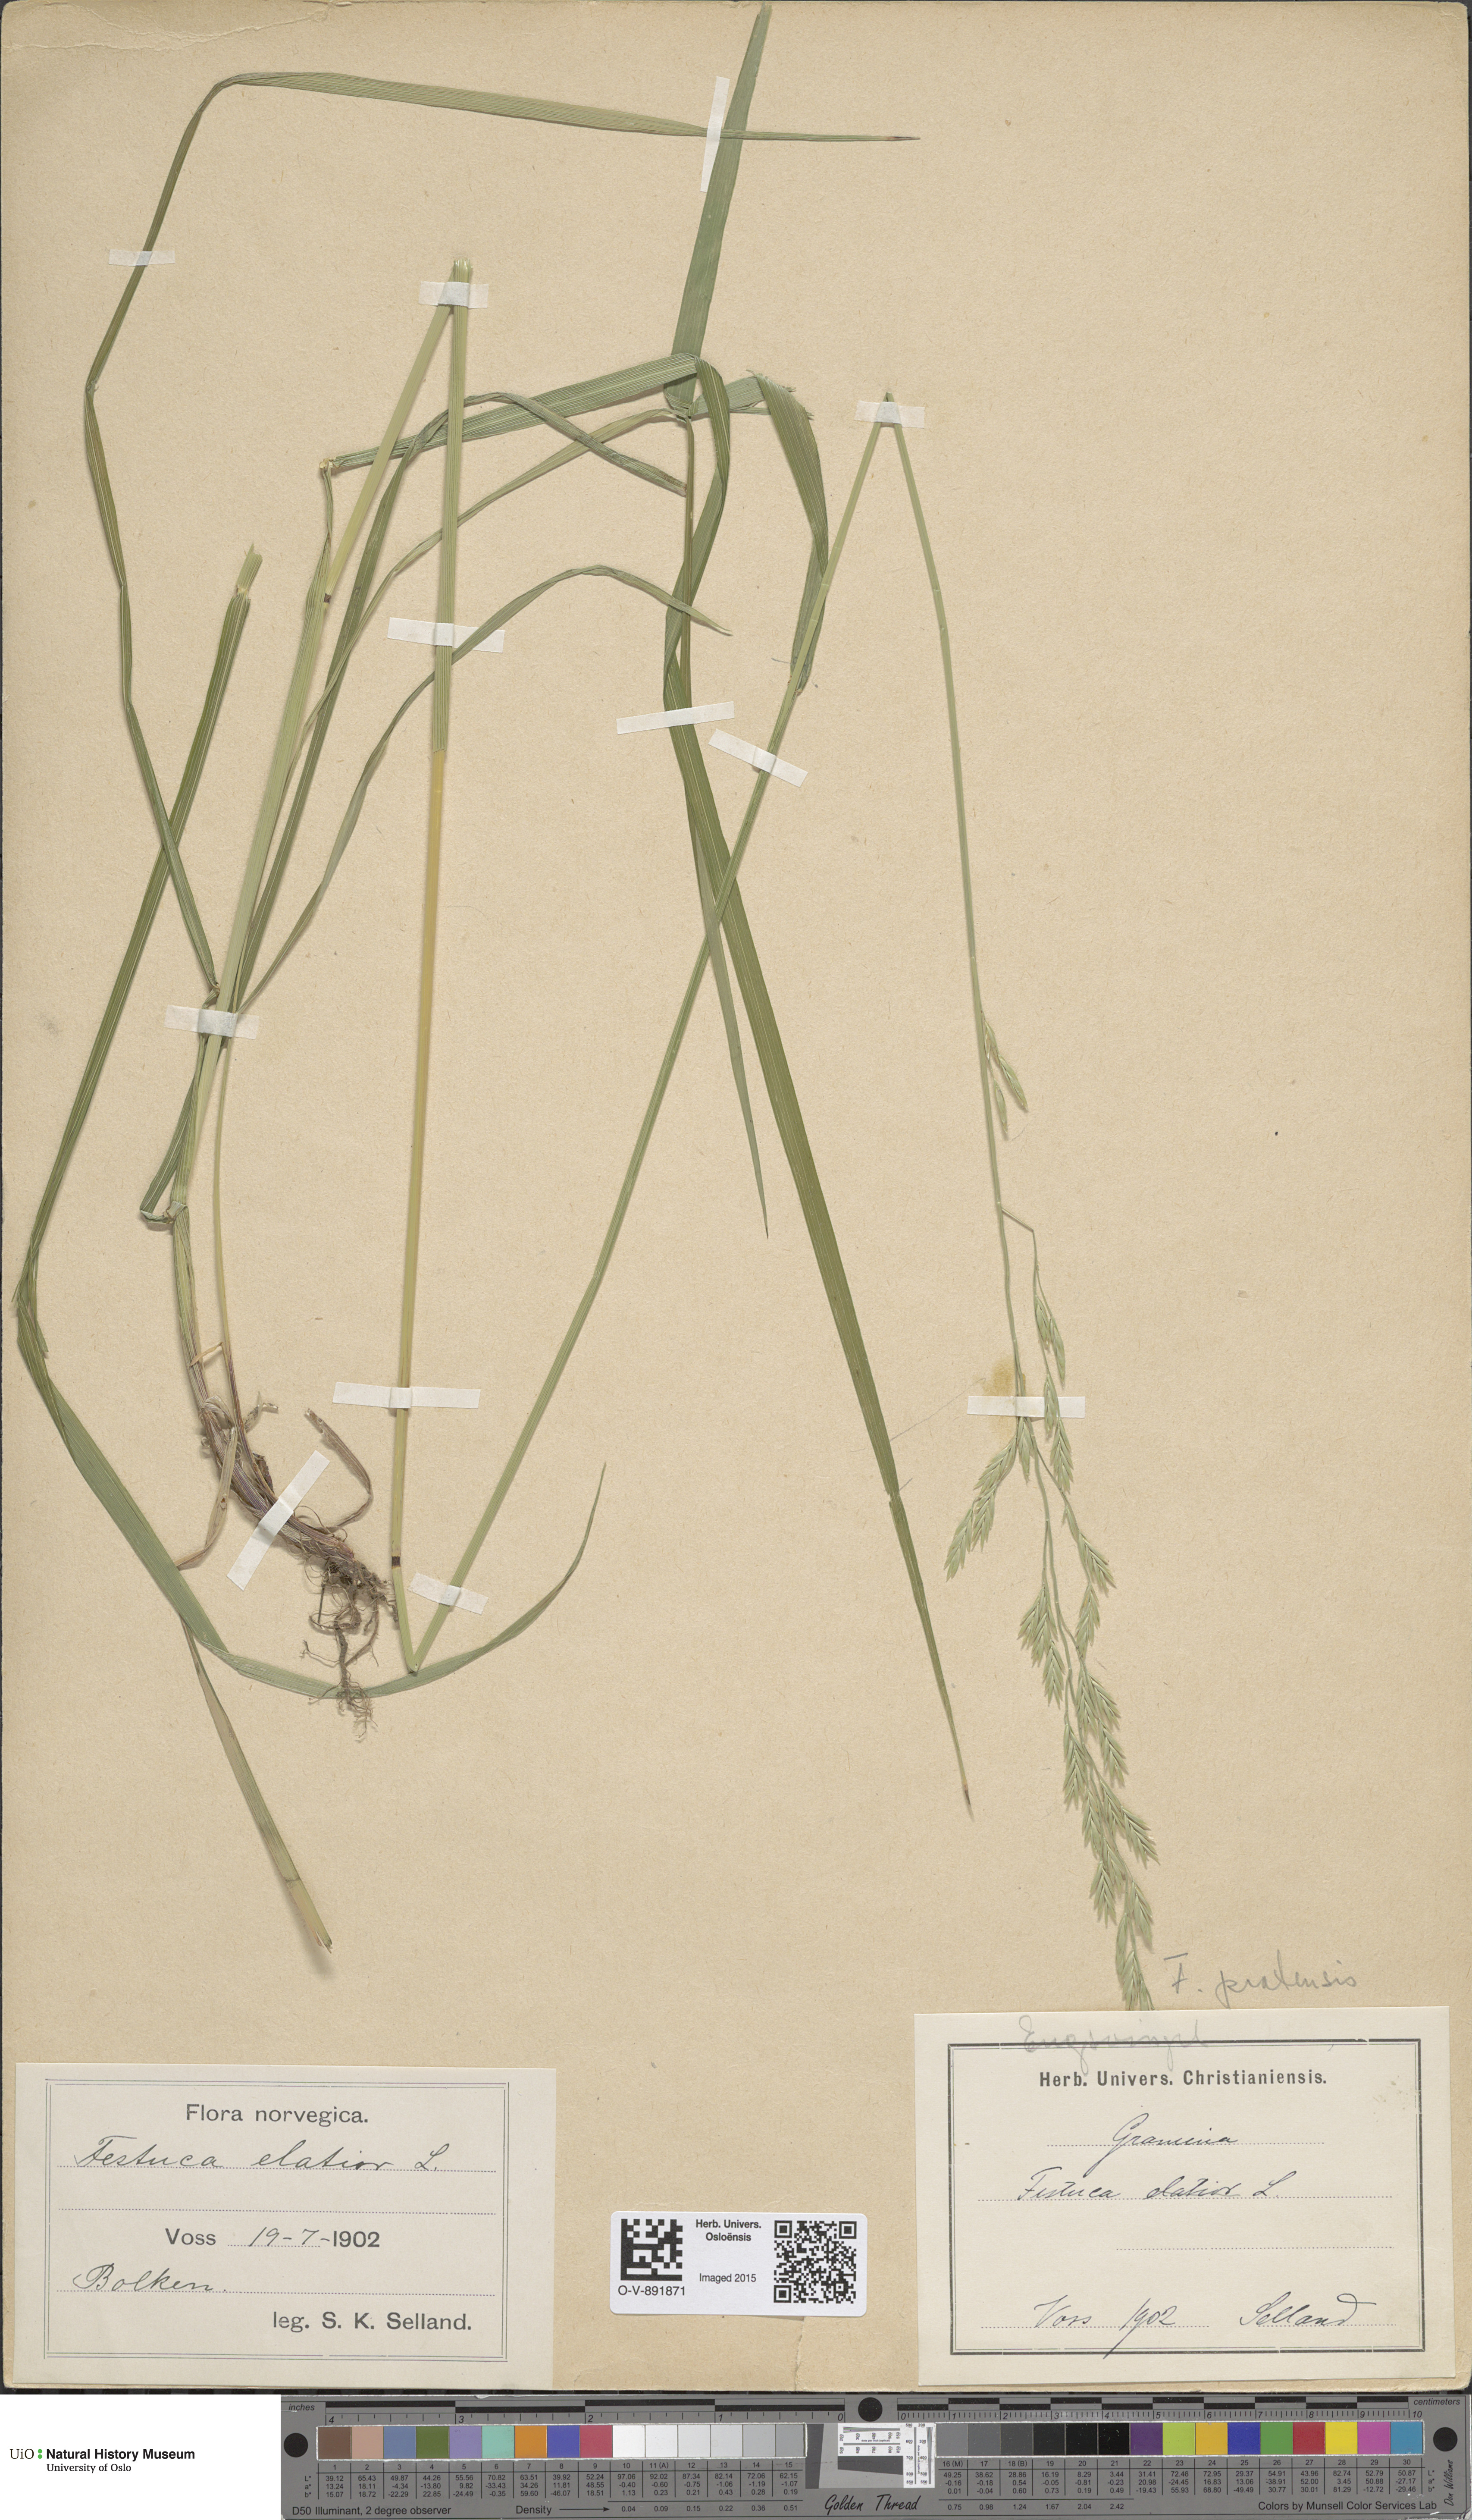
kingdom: Plantae
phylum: Tracheophyta
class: Liliopsida
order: Poales
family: Poaceae
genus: Lolium
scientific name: Lolium pratense
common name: Dover grass
